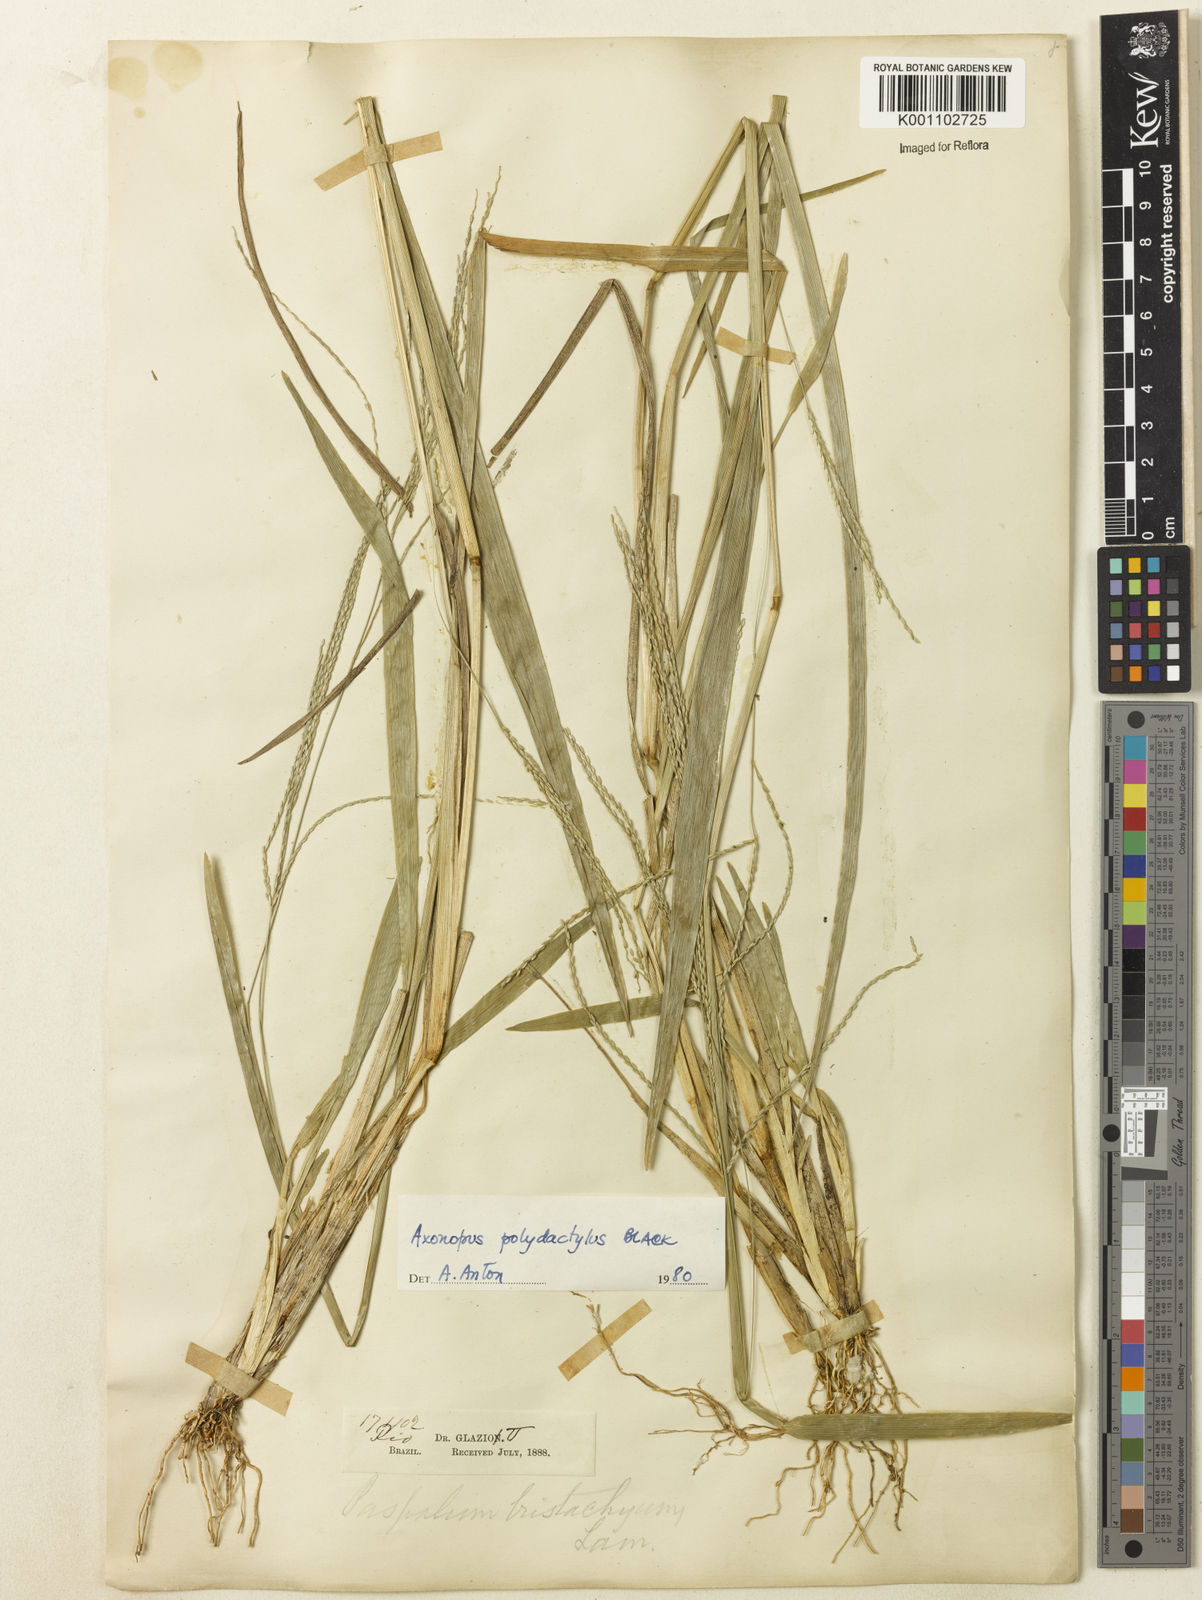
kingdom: Plantae
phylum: Tracheophyta
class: Liliopsida
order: Poales
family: Poaceae
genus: Axonopus
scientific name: Axonopus polystachyus
